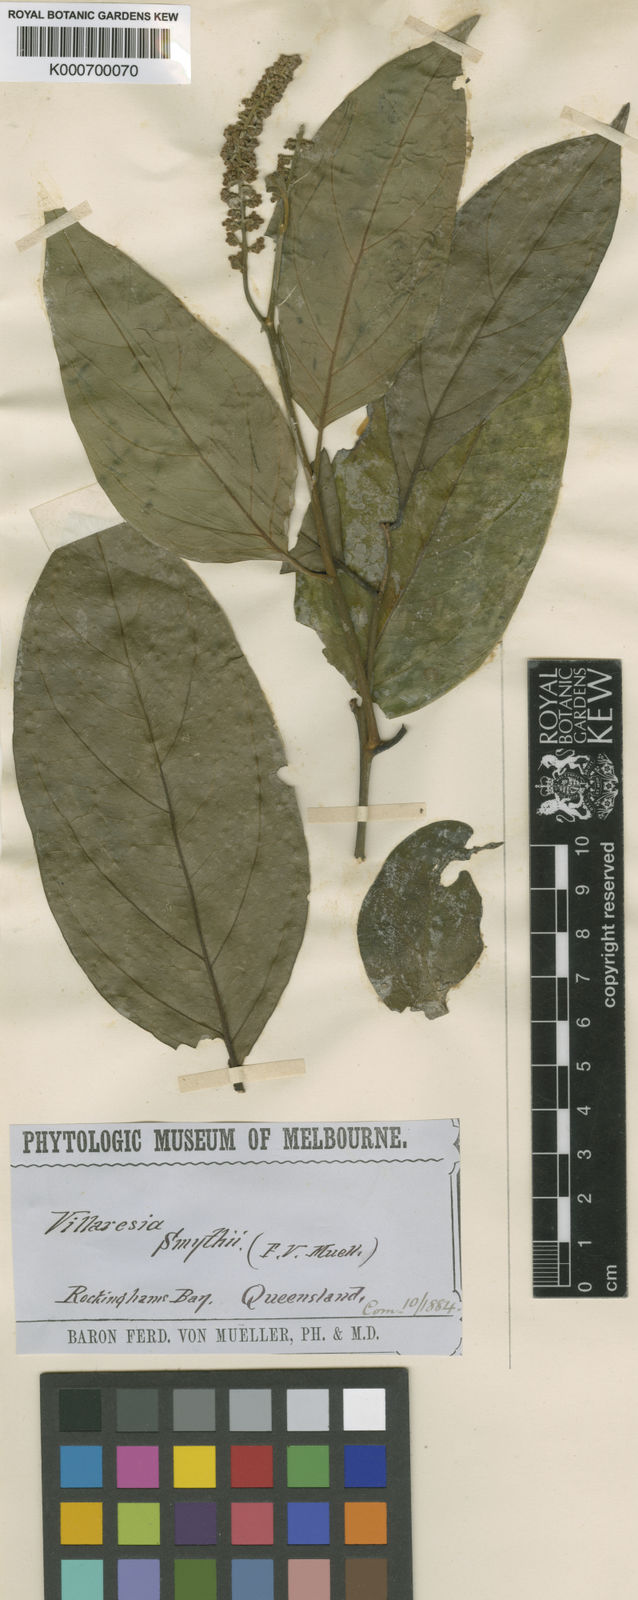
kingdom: Plantae
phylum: Tracheophyta
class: Magnoliopsida
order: Cardiopteridales
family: Cardiopteridaceae
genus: Citronella
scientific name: Citronella smythii
